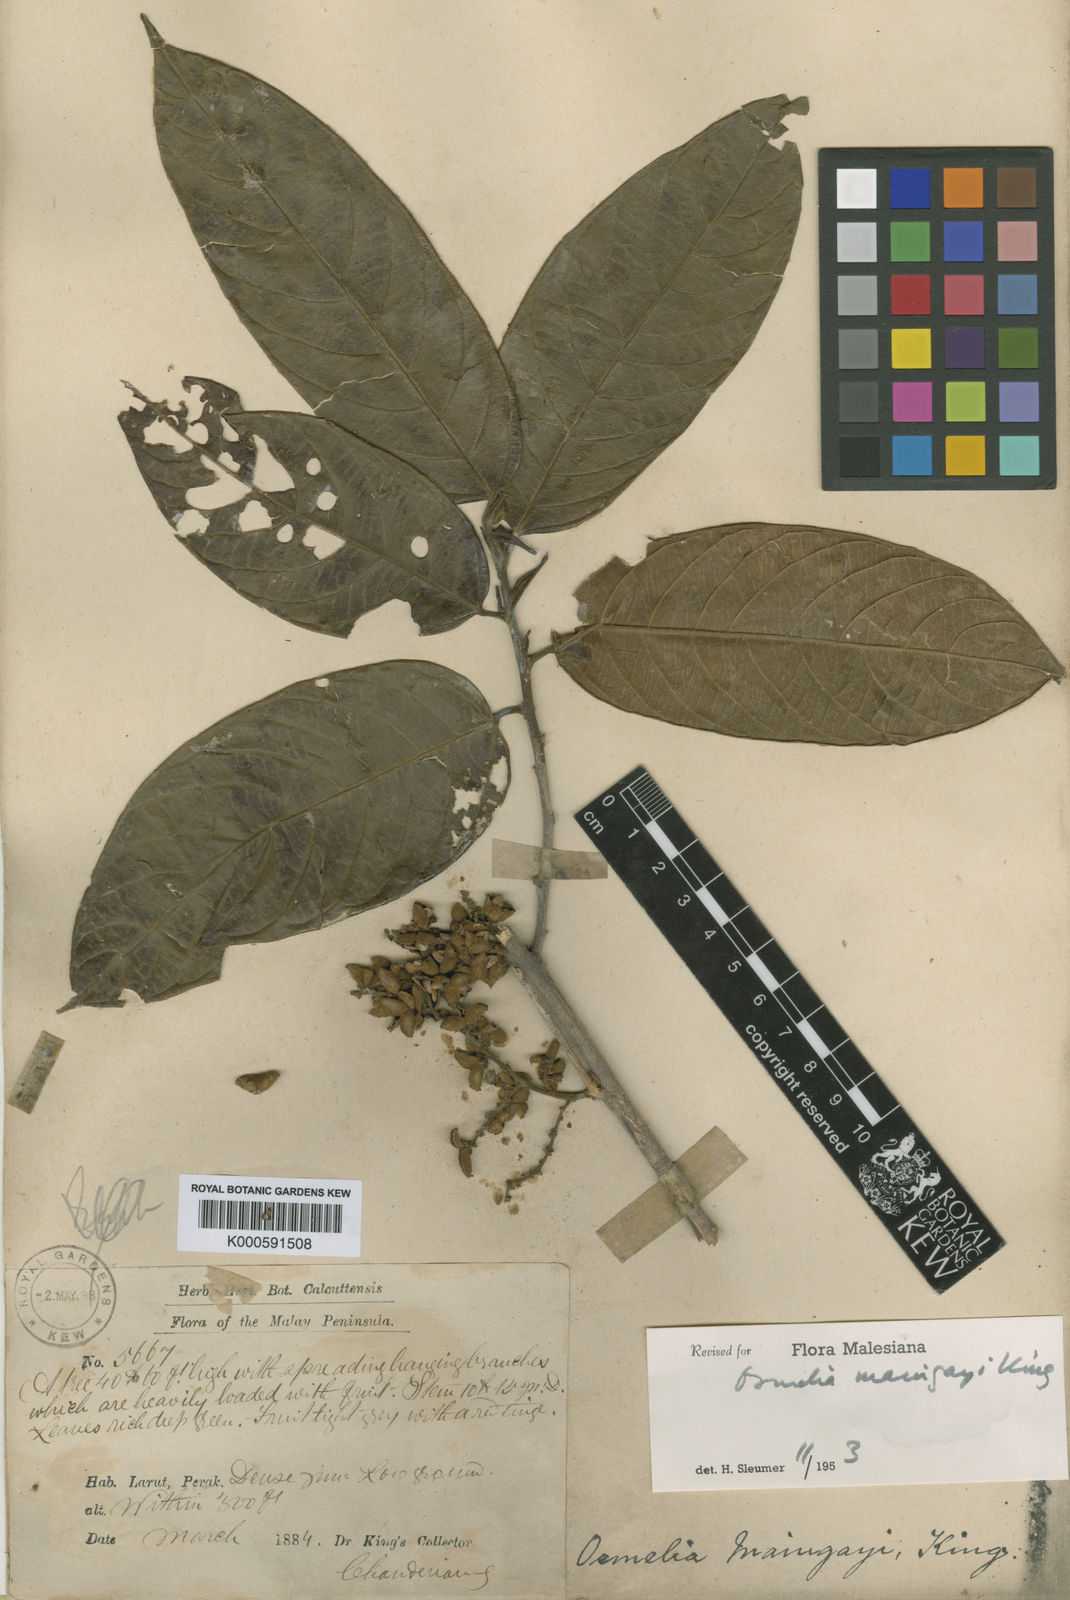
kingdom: Plantae
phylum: Tracheophyta
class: Magnoliopsida
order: Malpighiales
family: Salicaceae
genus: Osmelia
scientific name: Osmelia maingayi
